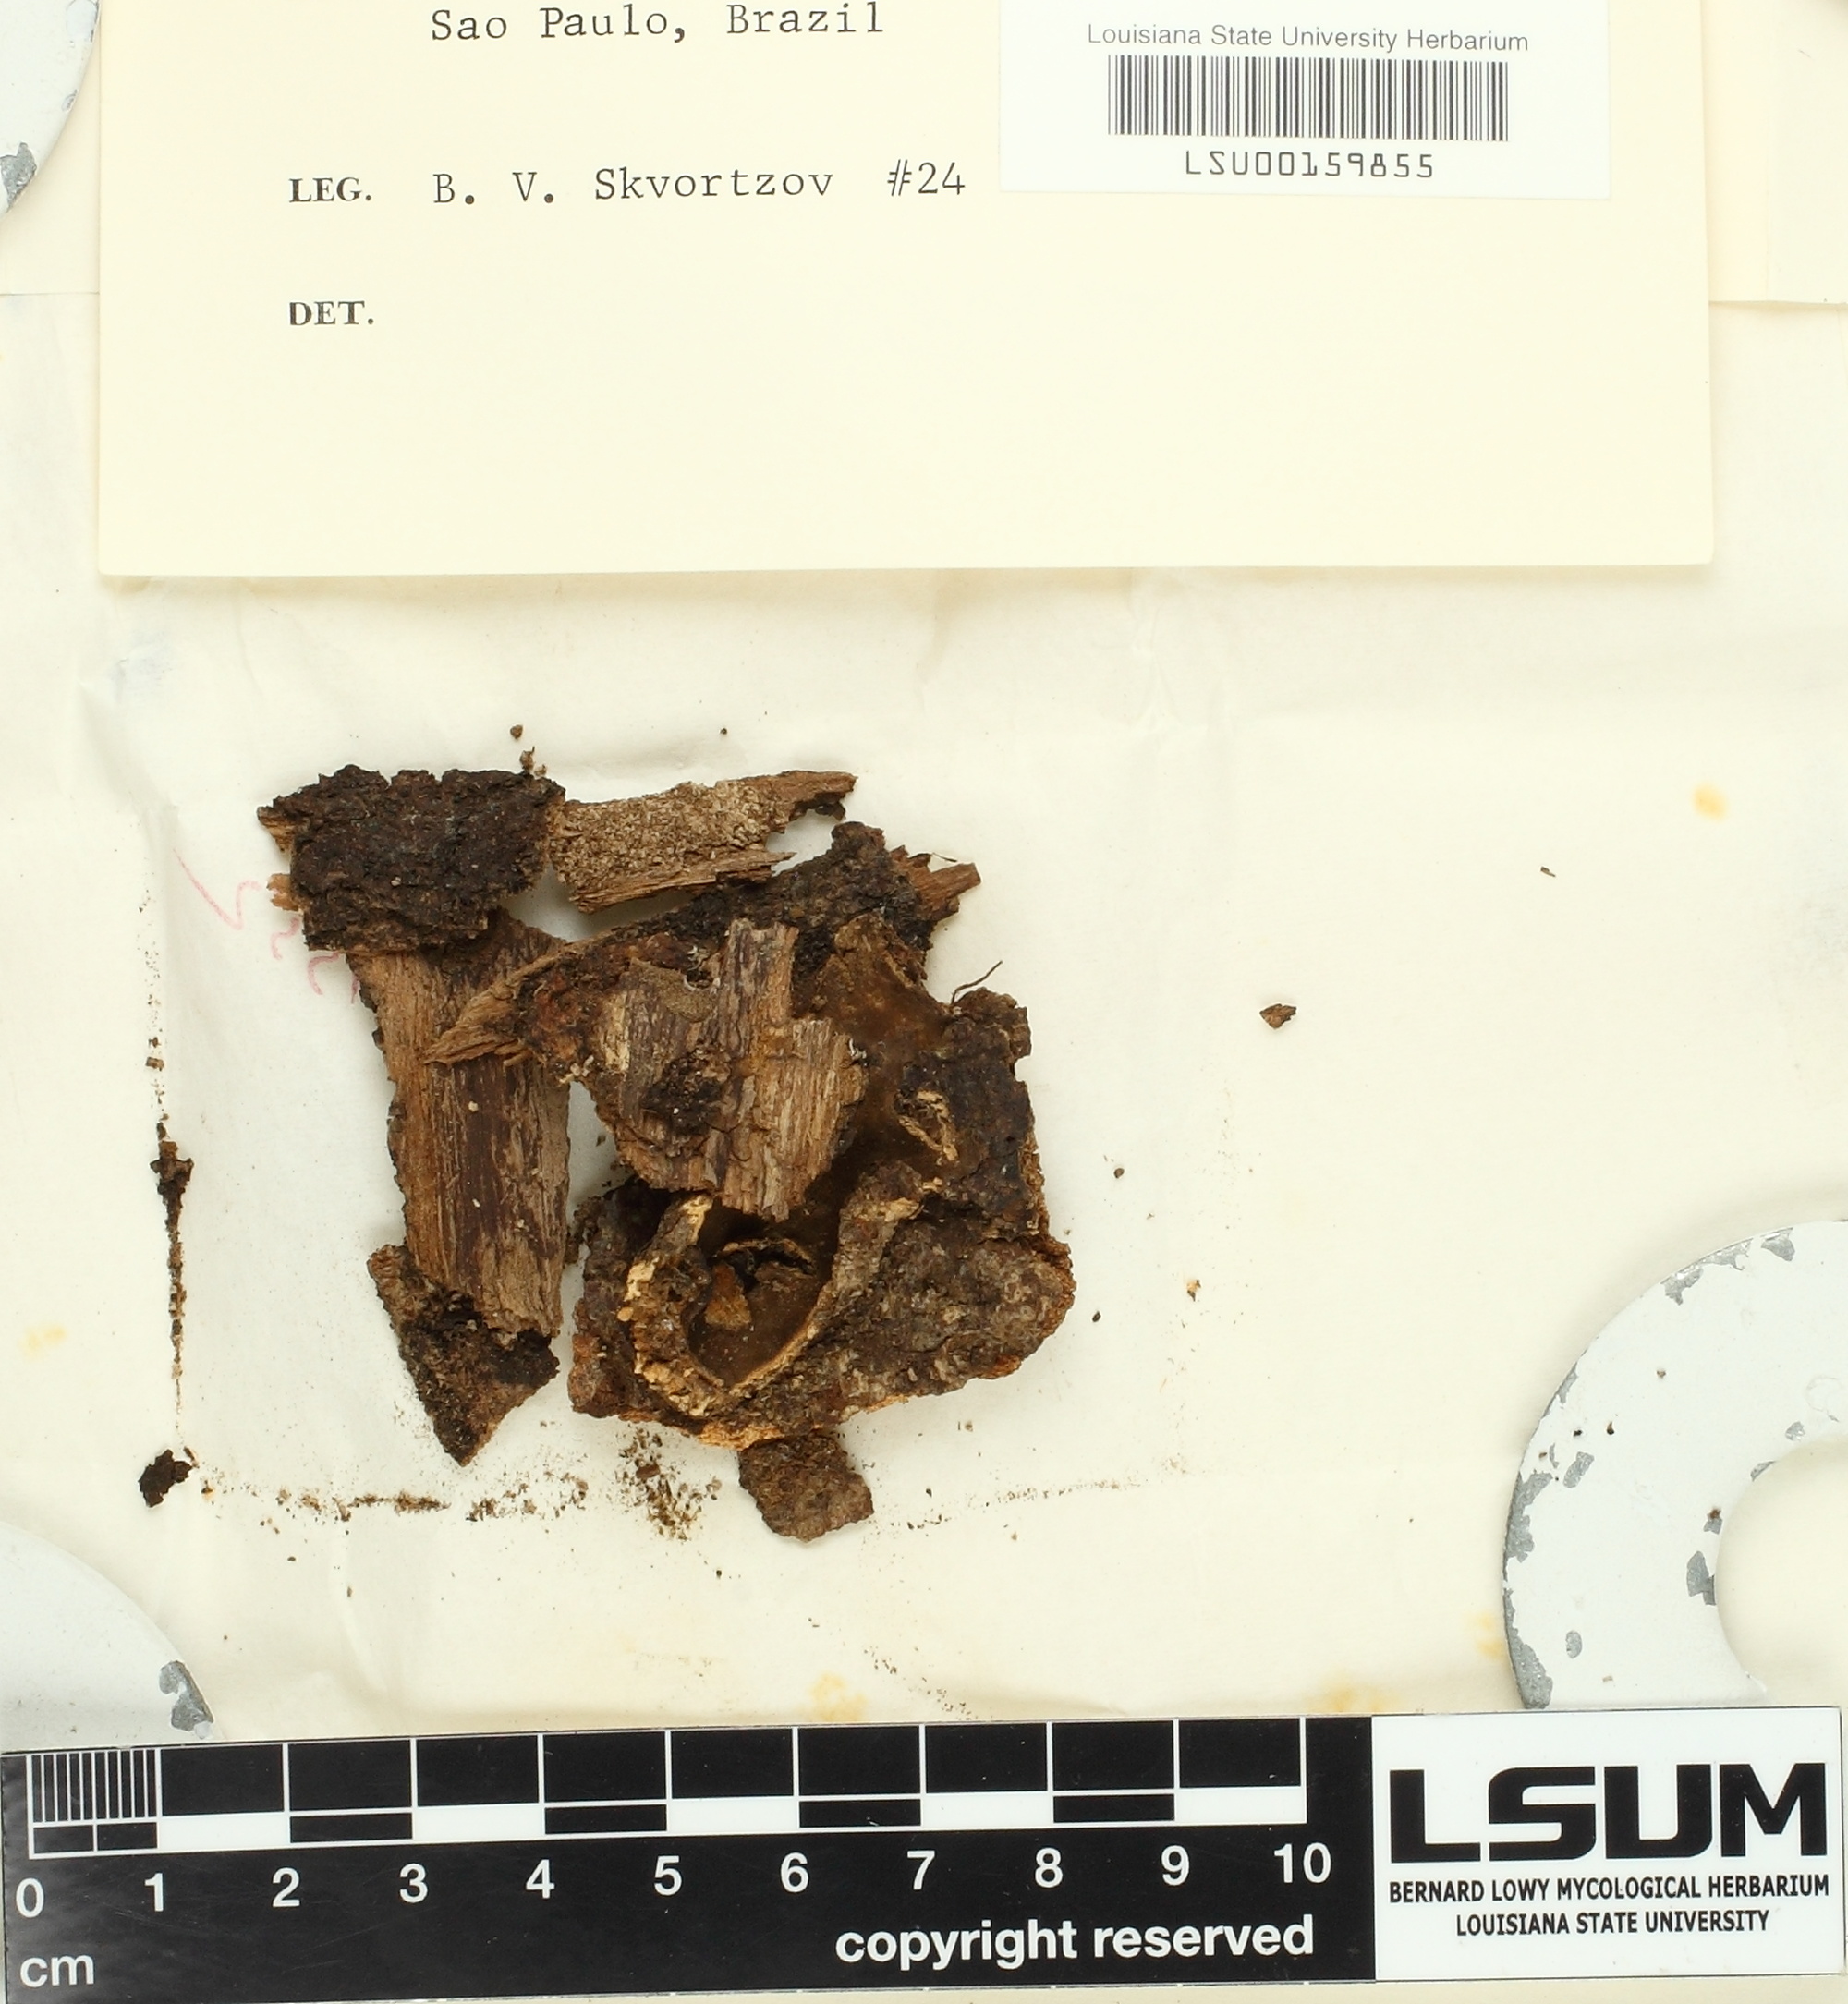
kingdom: Fungi
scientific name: Fungi
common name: Fungi
